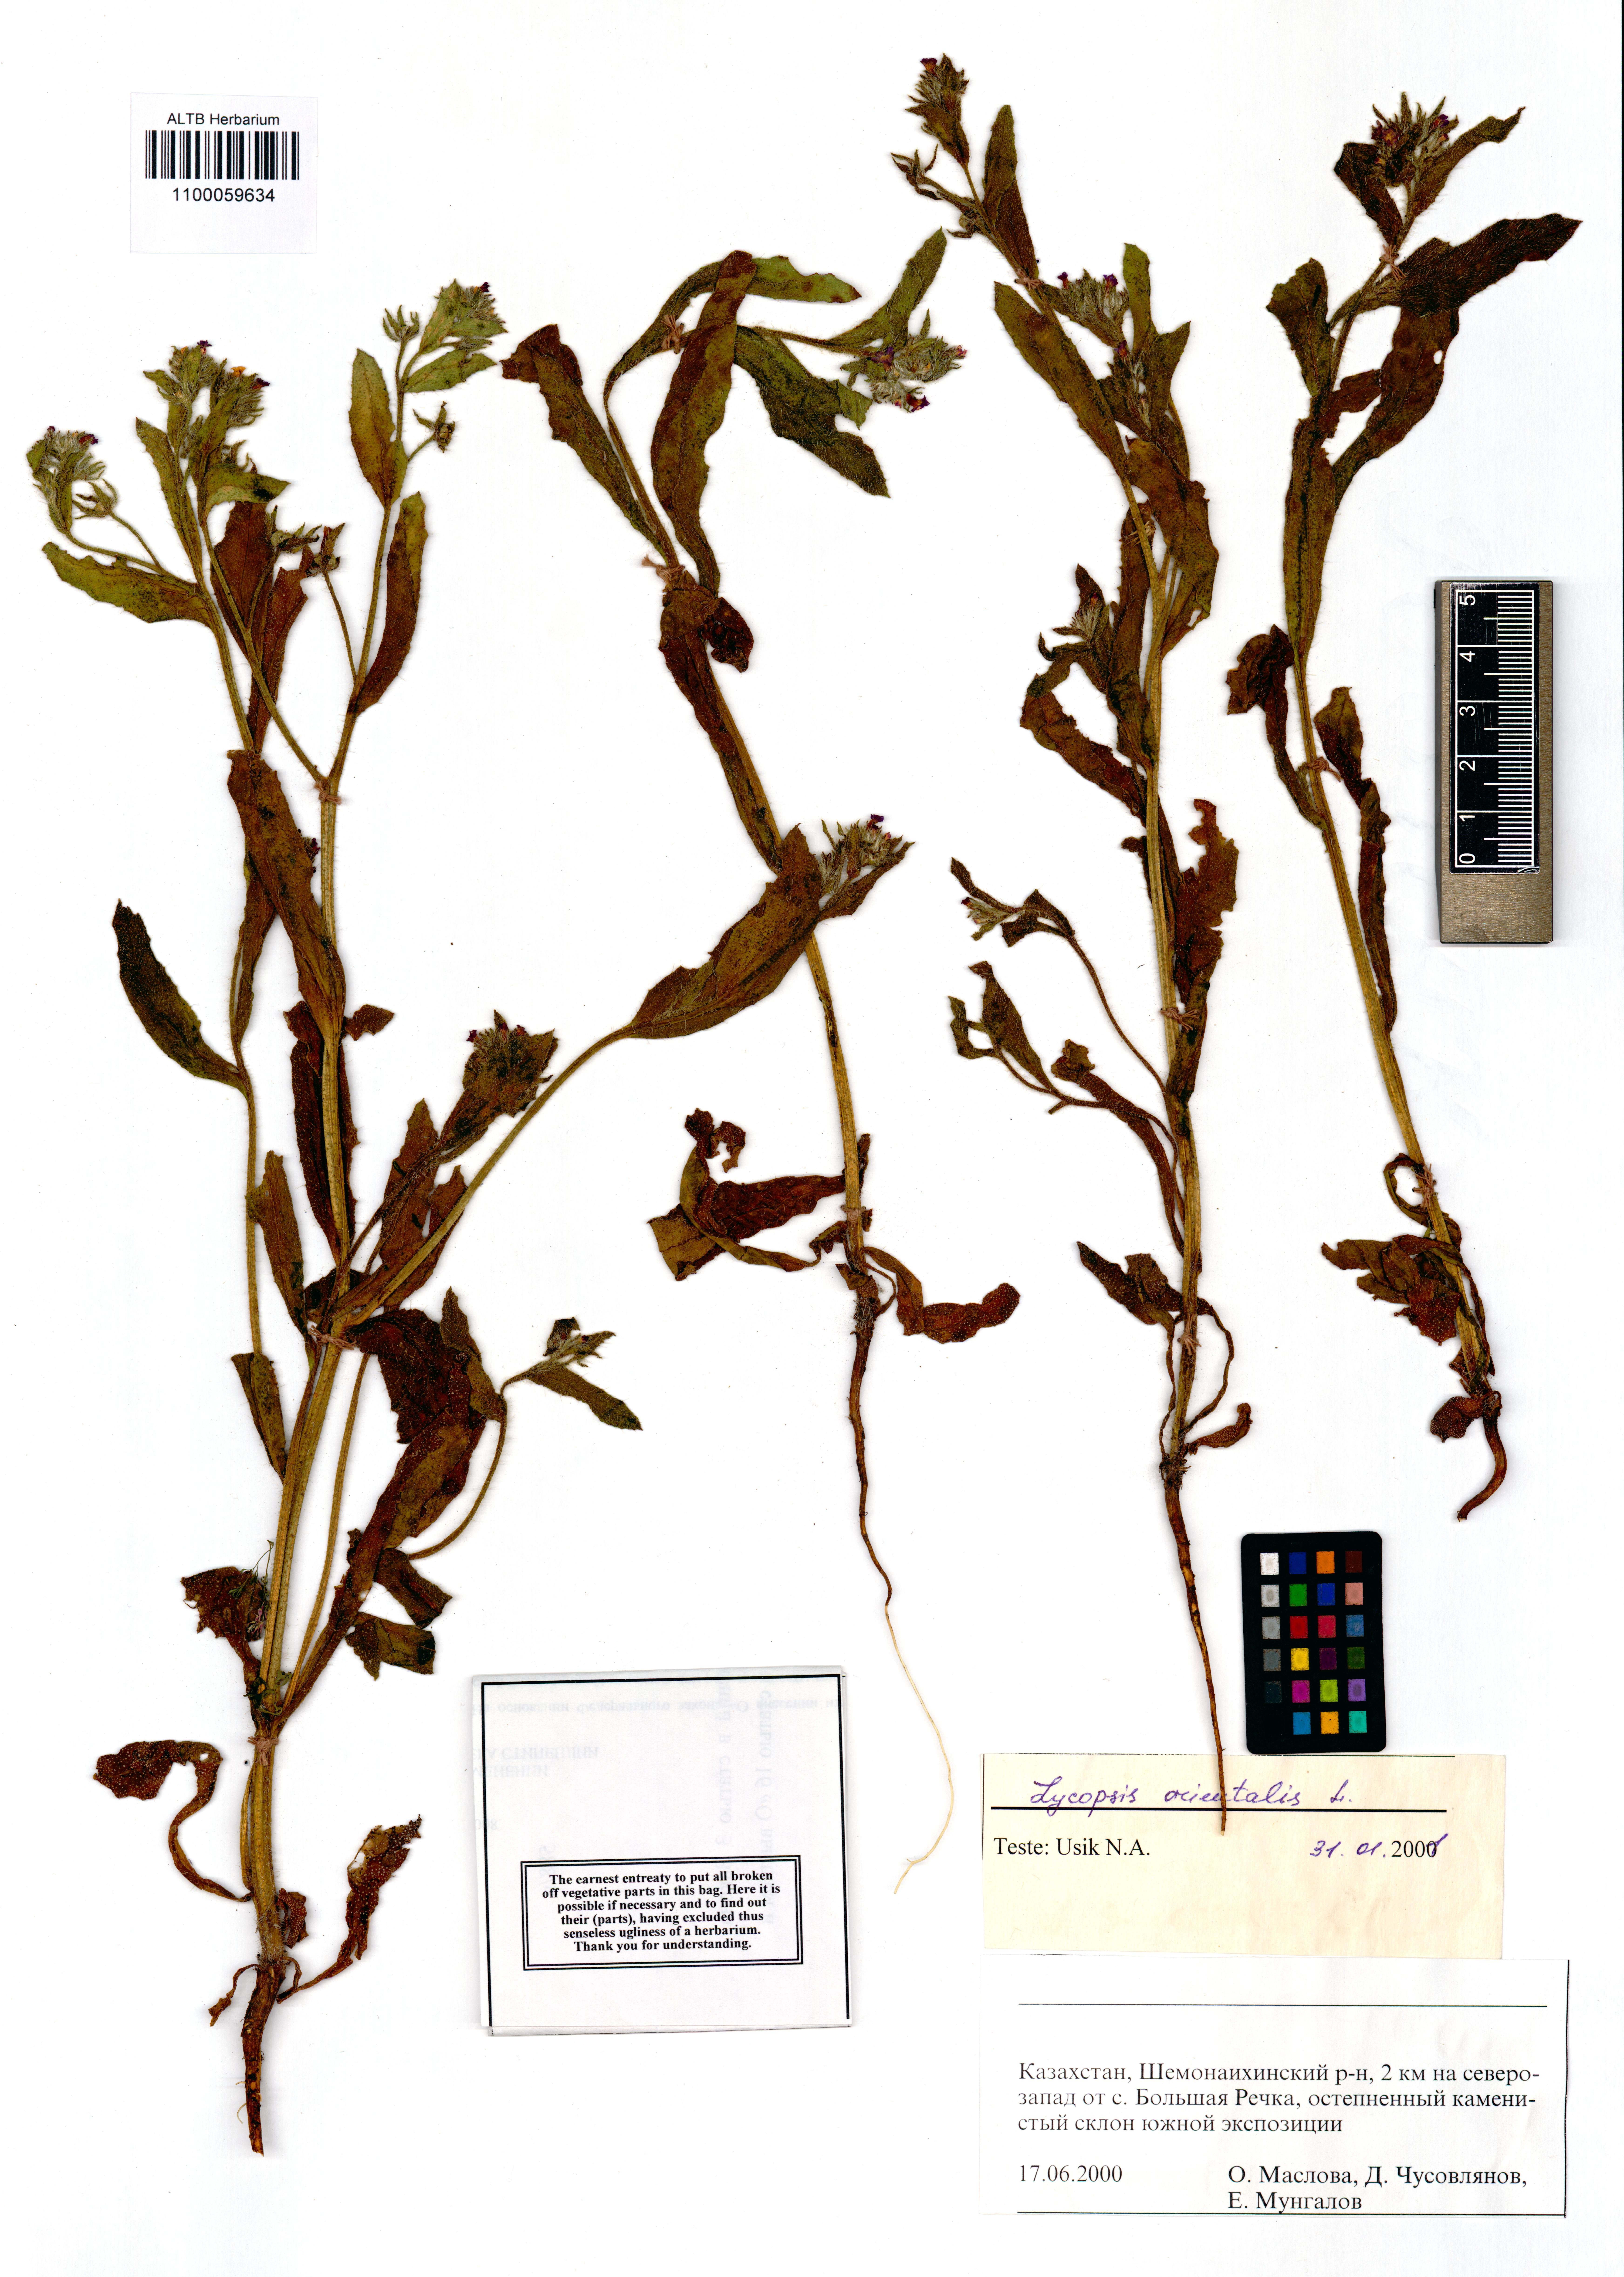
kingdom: Plantae
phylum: Tracheophyta
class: Magnoliopsida
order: Boraginales
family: Boraginaceae
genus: Lycopsis
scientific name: Lycopsis arvensis
